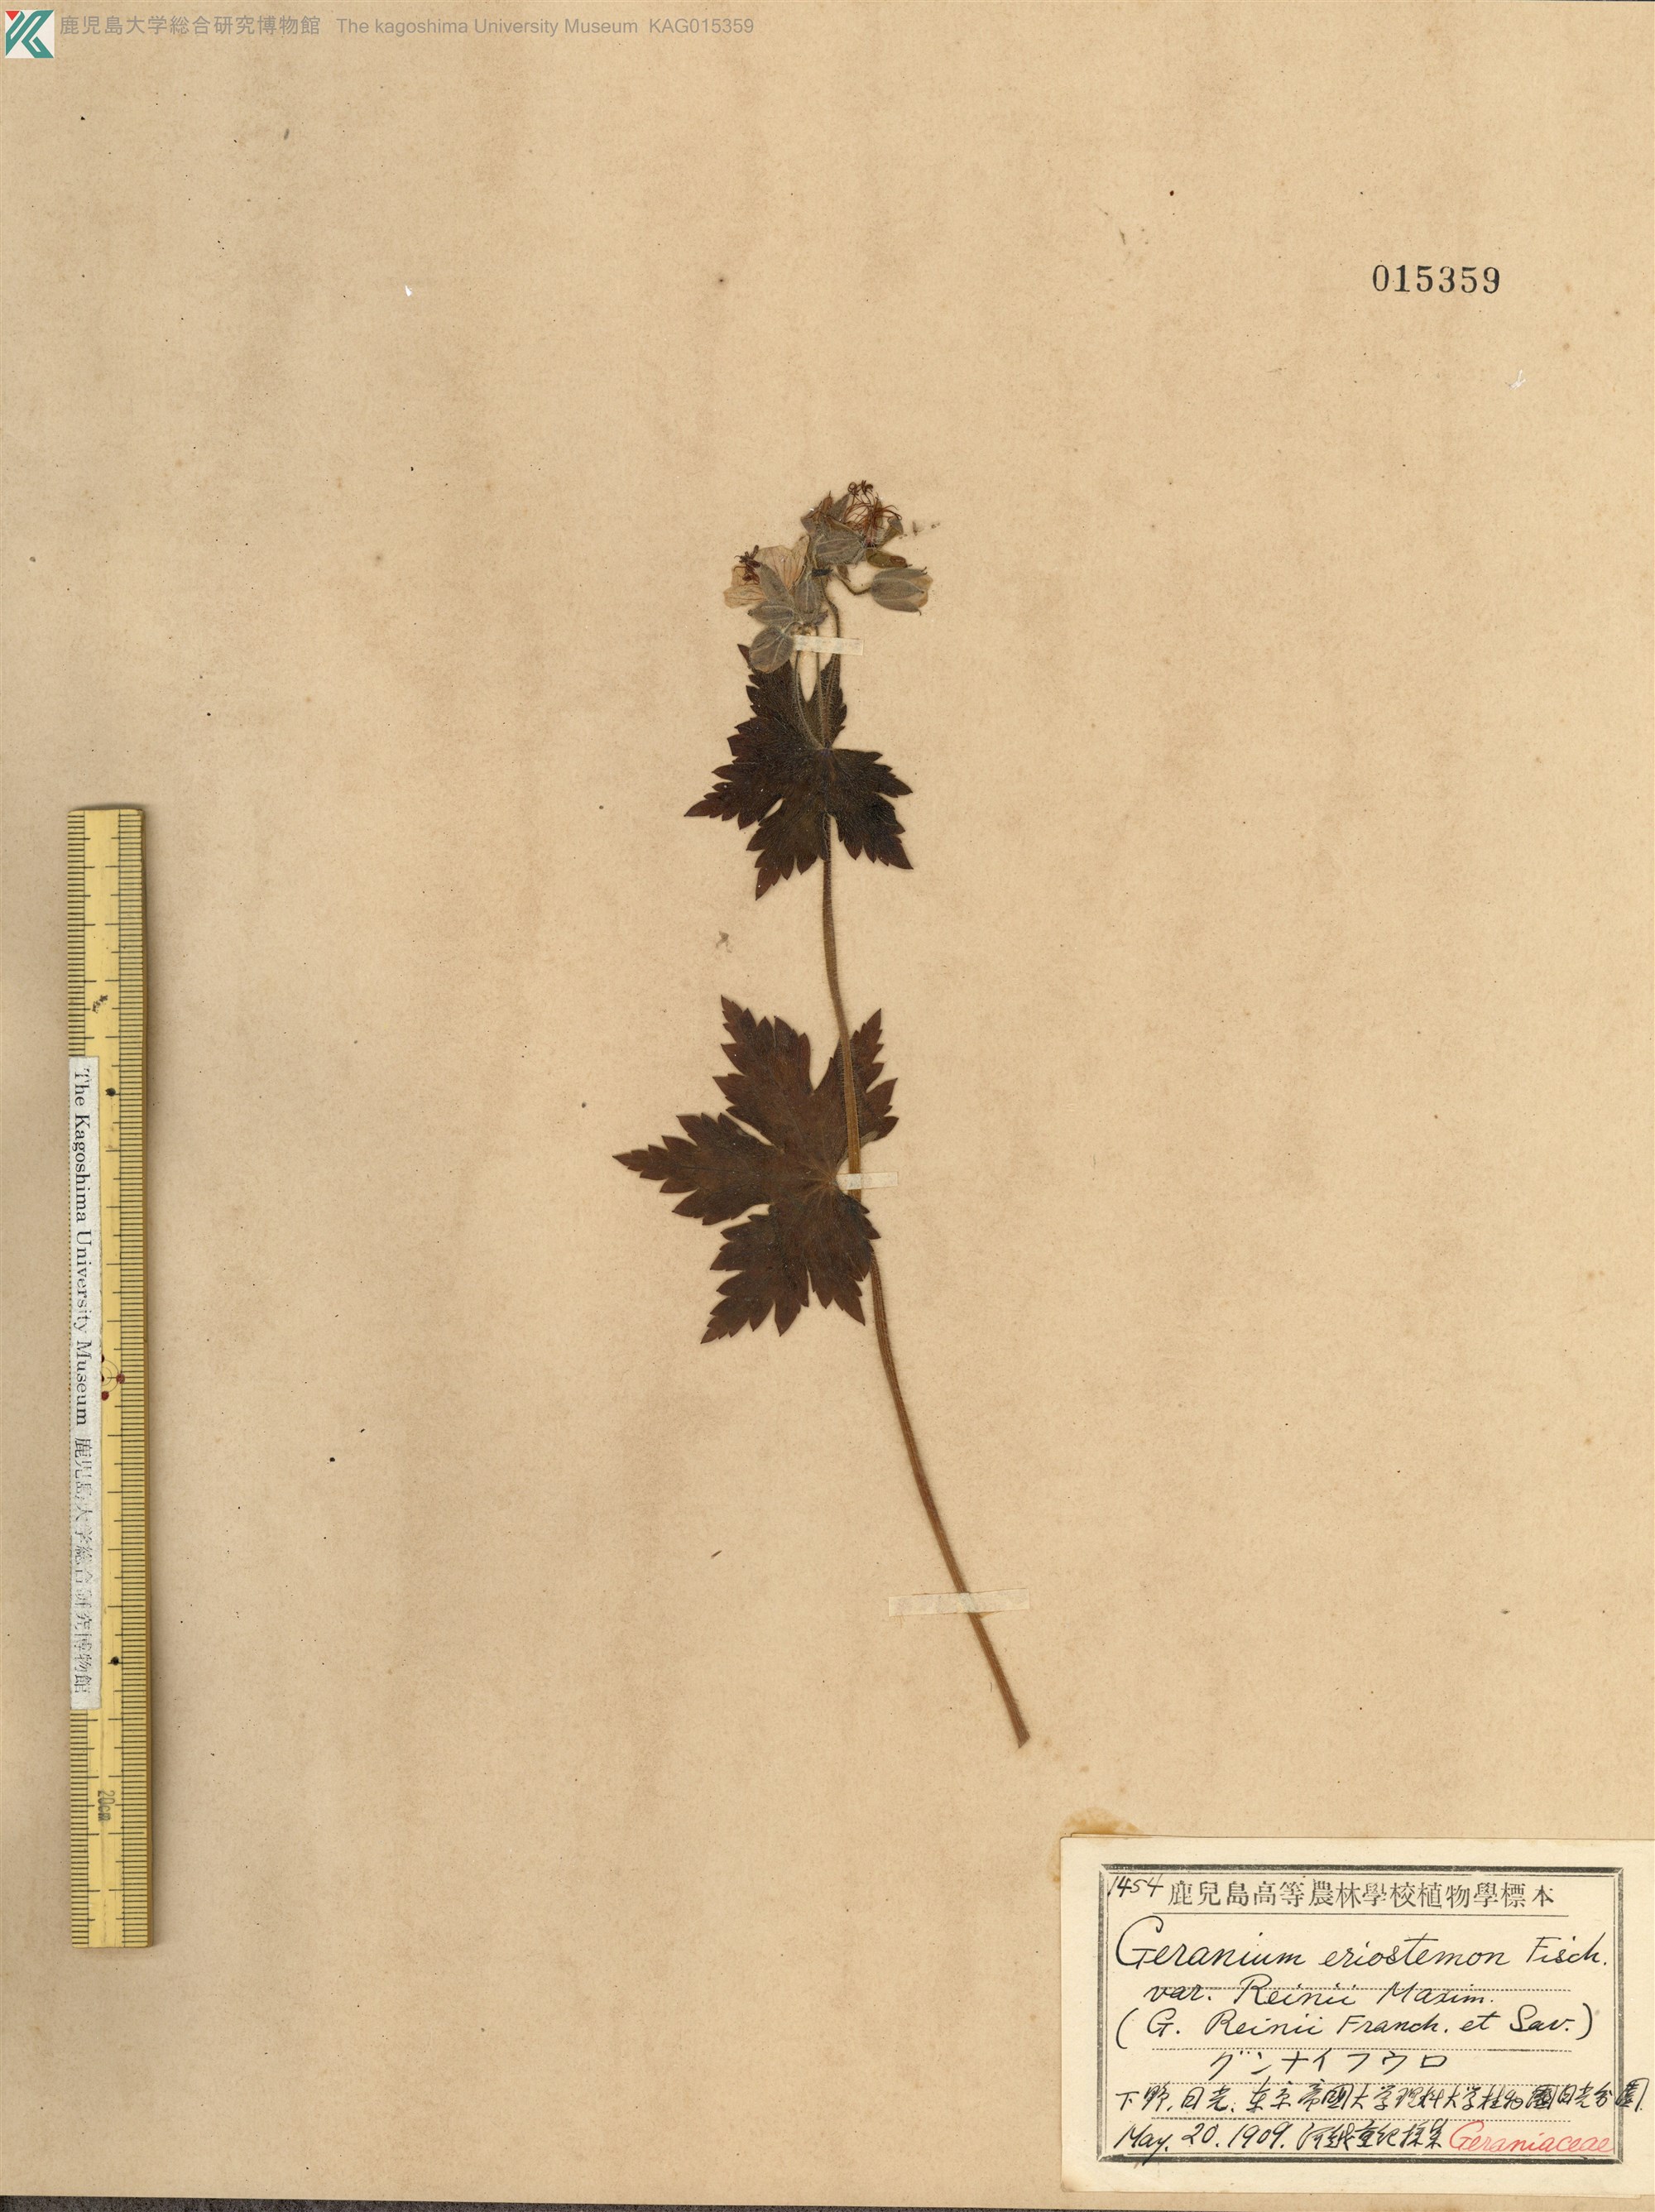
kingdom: Plantae
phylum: Tracheophyta
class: Magnoliopsida
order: Geraniales
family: Geraniaceae
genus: Geranium
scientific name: Geranium reinii
